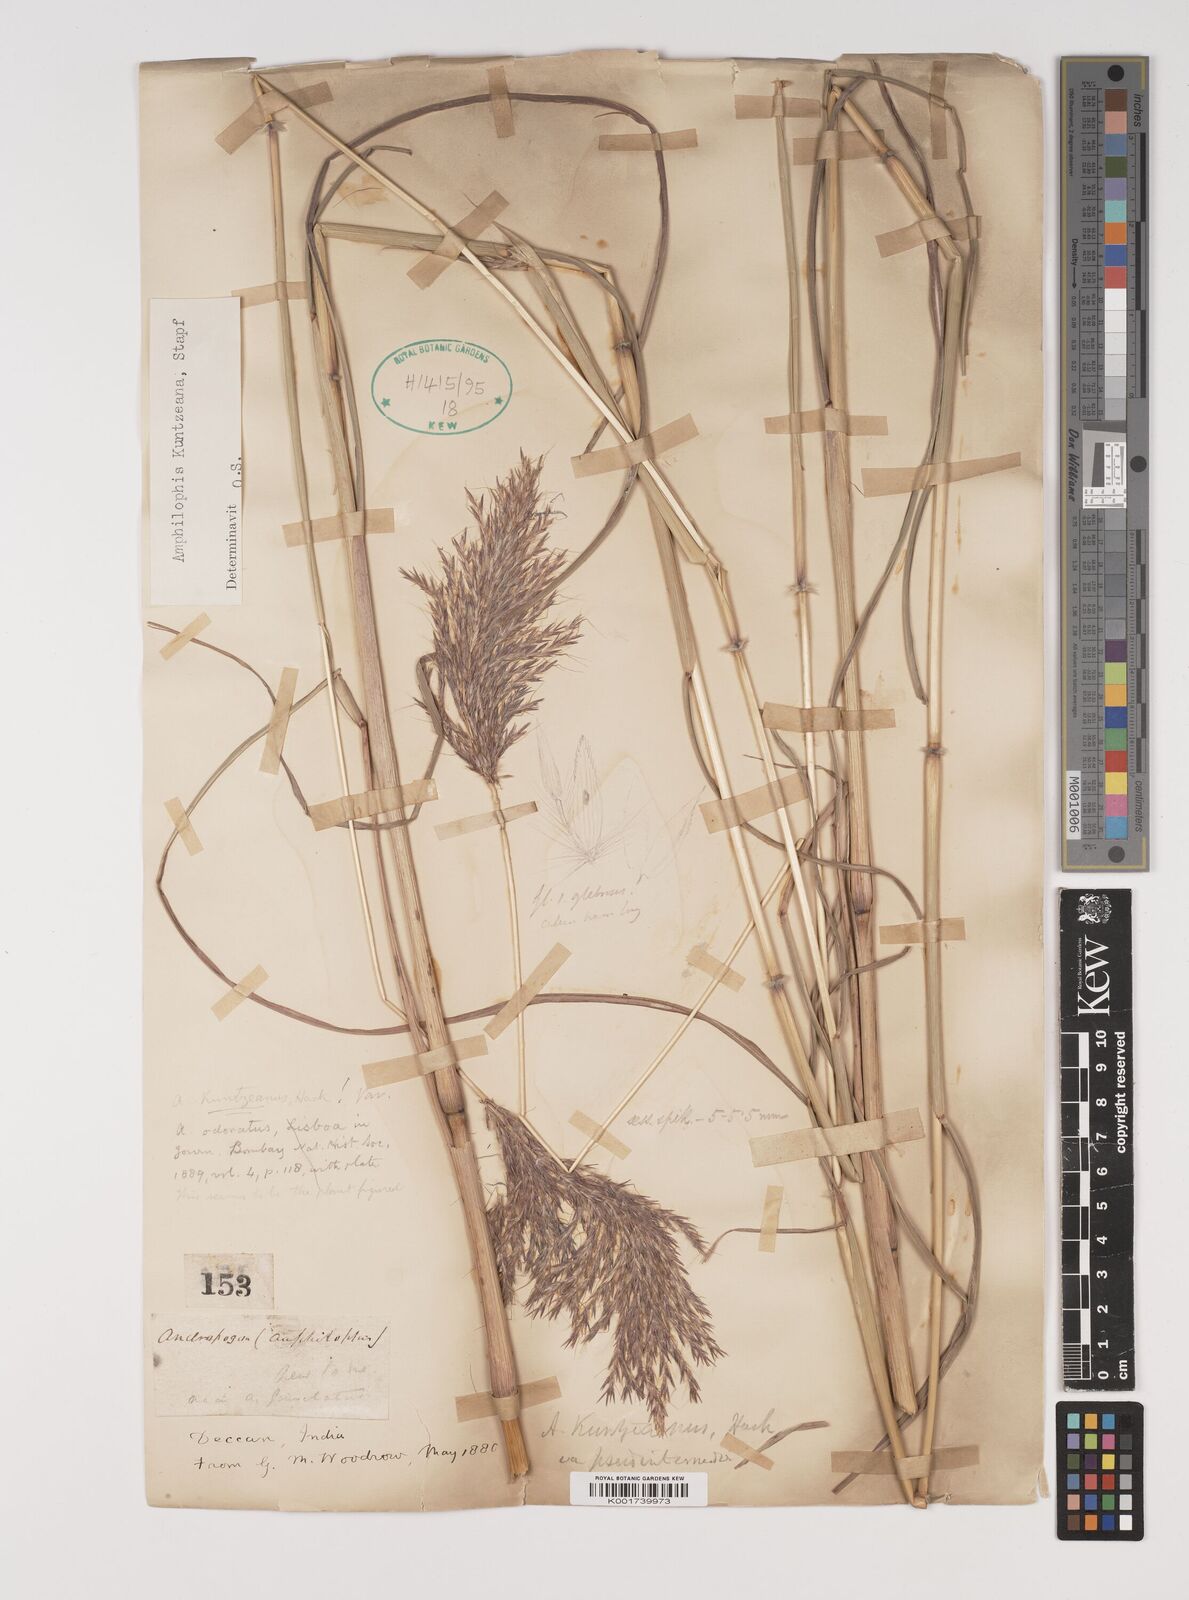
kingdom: Plantae
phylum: Tracheophyta
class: Liliopsida
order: Poales
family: Poaceae
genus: Bothriochloa
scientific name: Bothriochloa kuntzeana
